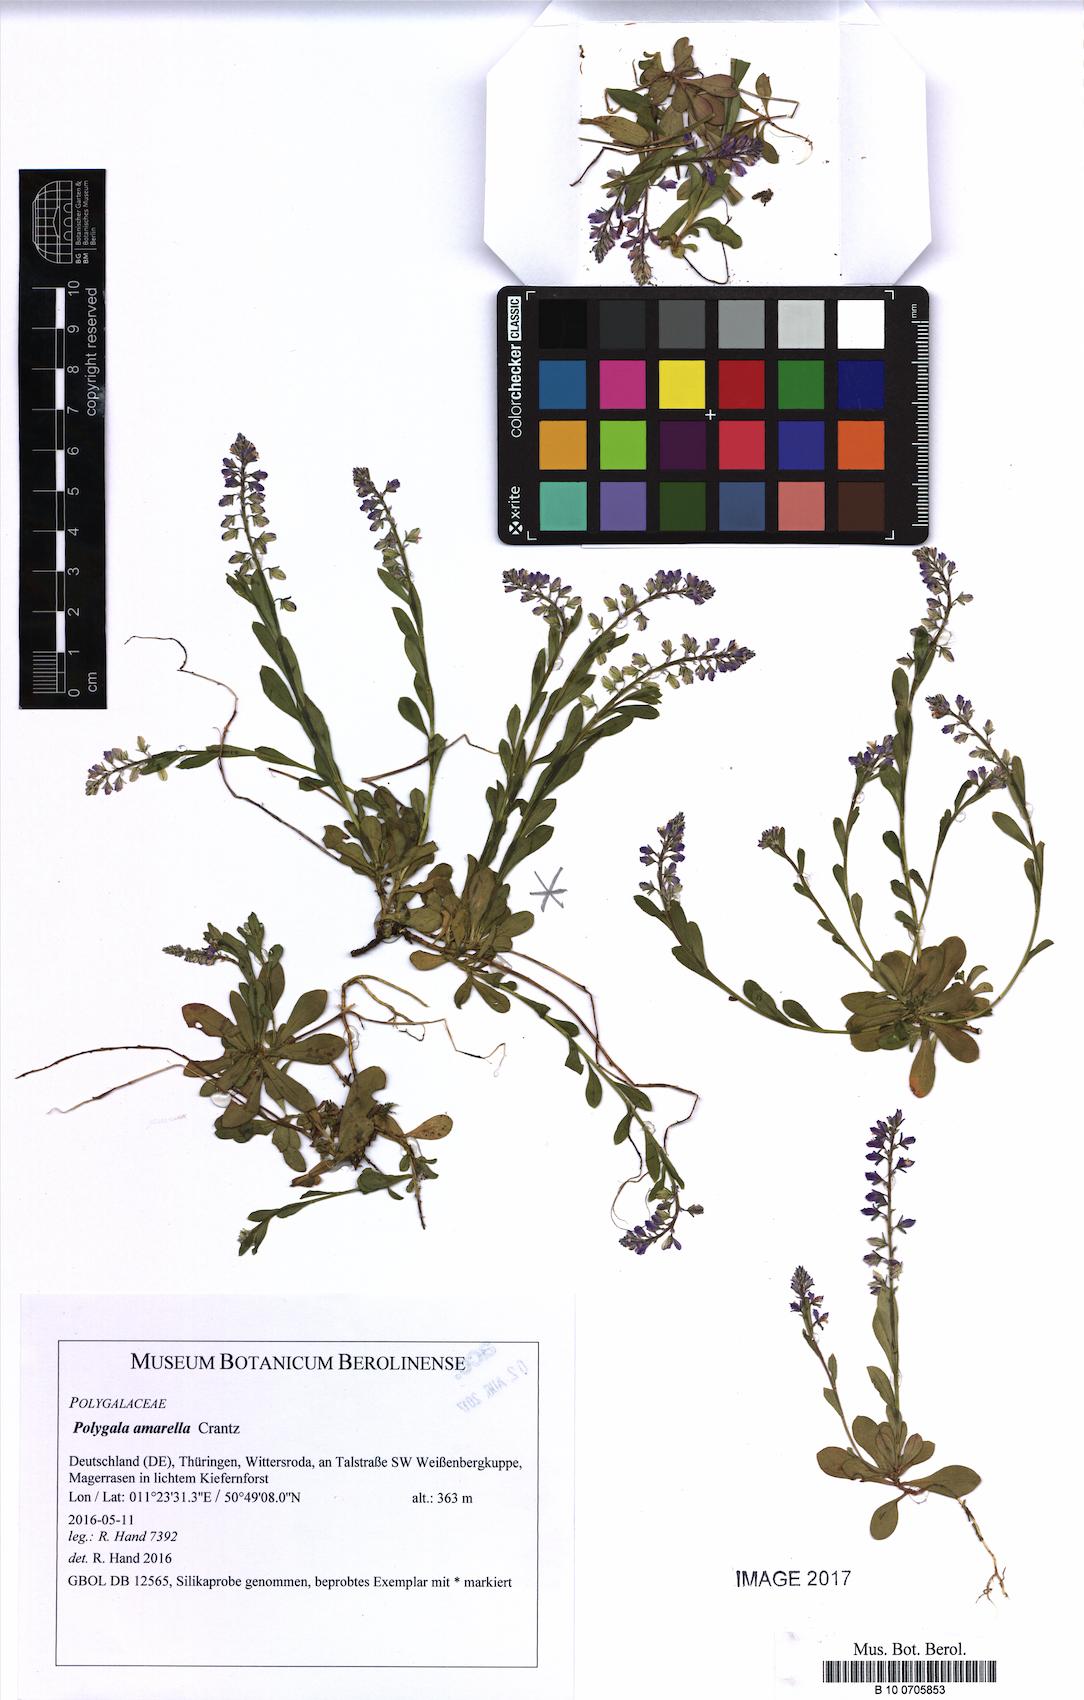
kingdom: Plantae
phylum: Tracheophyta
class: Magnoliopsida
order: Fabales
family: Polygalaceae
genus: Polygala
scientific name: Polygala amarella
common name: Dwarf milkwort
